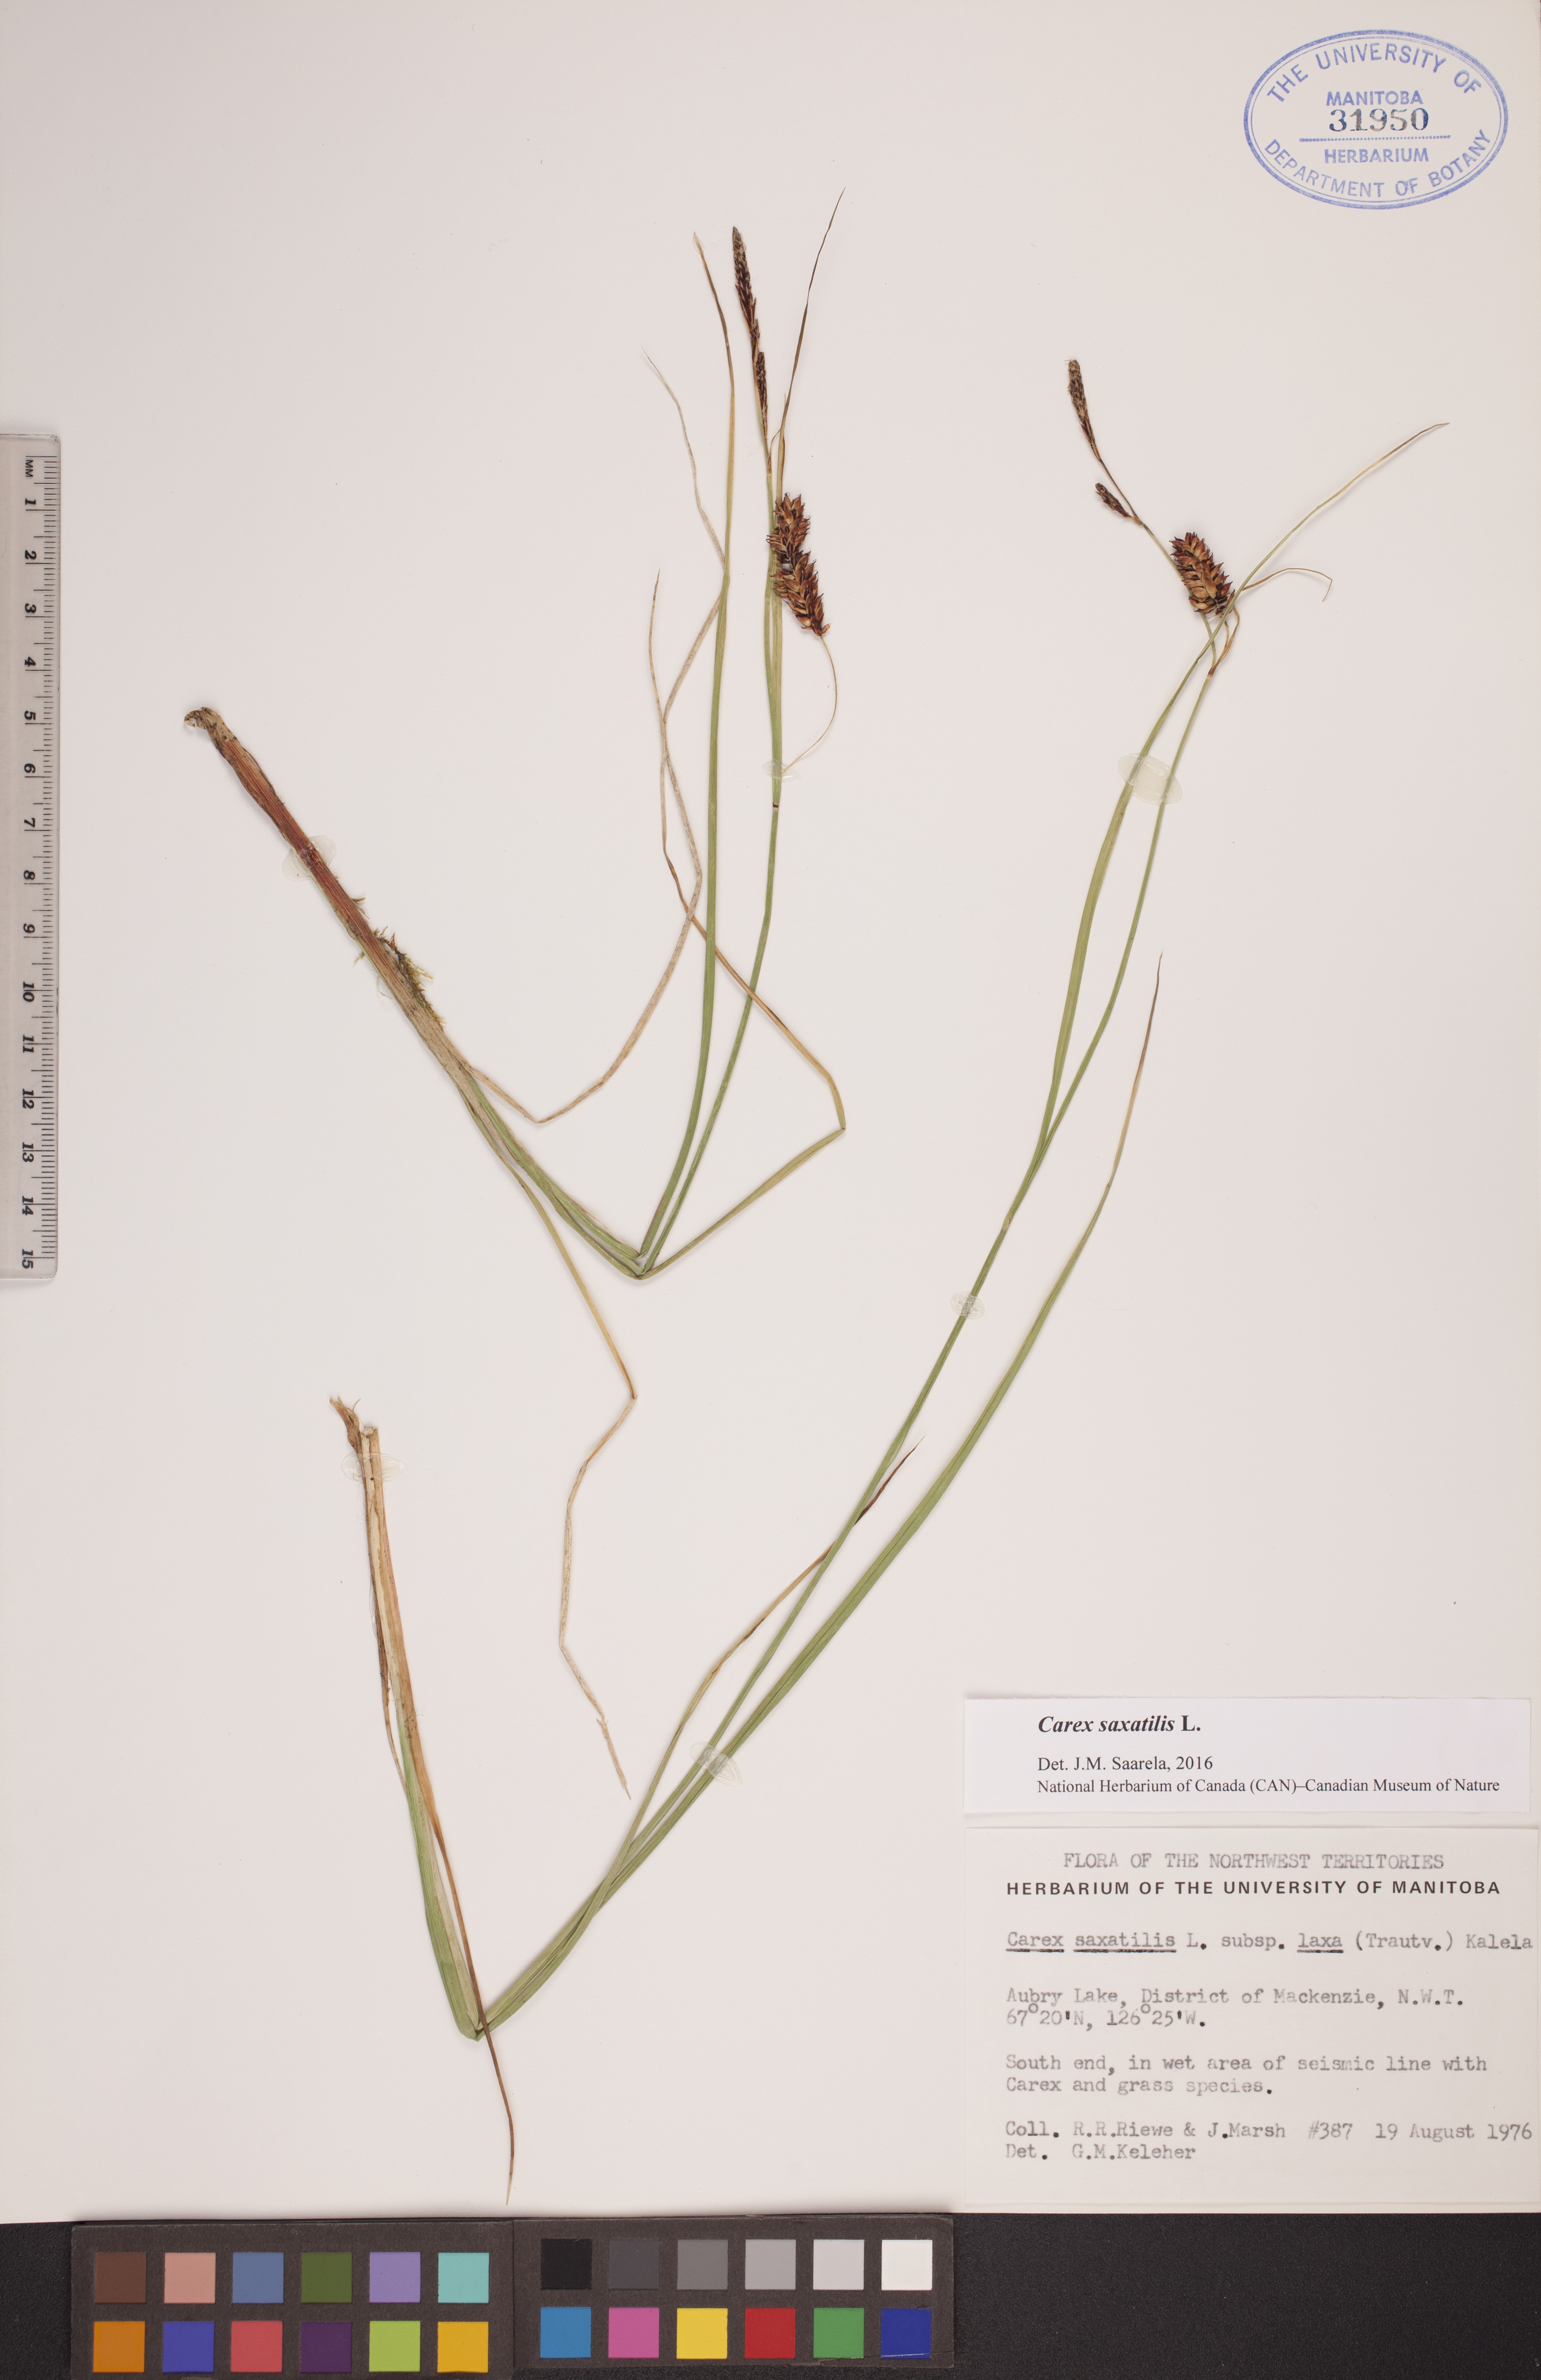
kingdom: Plantae
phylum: Tracheophyta
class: Liliopsida
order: Poales
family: Cyperaceae
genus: Carex
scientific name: Carex saxatilis
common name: Russet sedge
